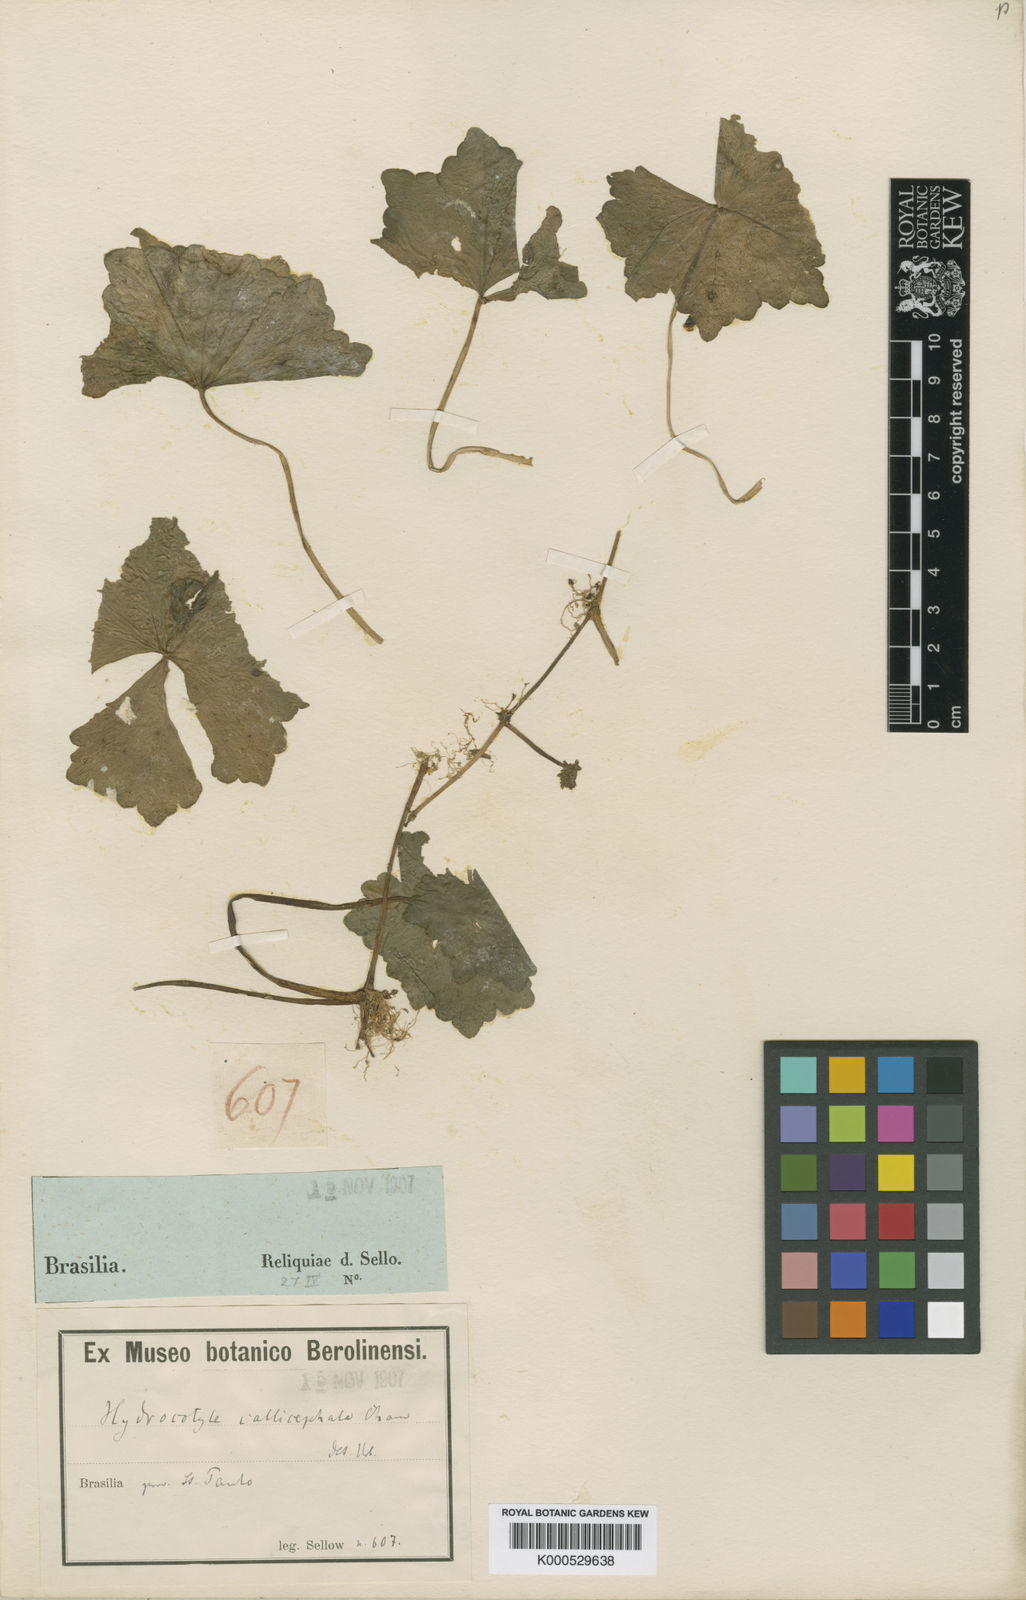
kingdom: Plantae
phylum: Tracheophyta
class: Magnoliopsida
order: Apiales
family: Araliaceae
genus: Hydrocotyle
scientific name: Hydrocotyle callicephala
